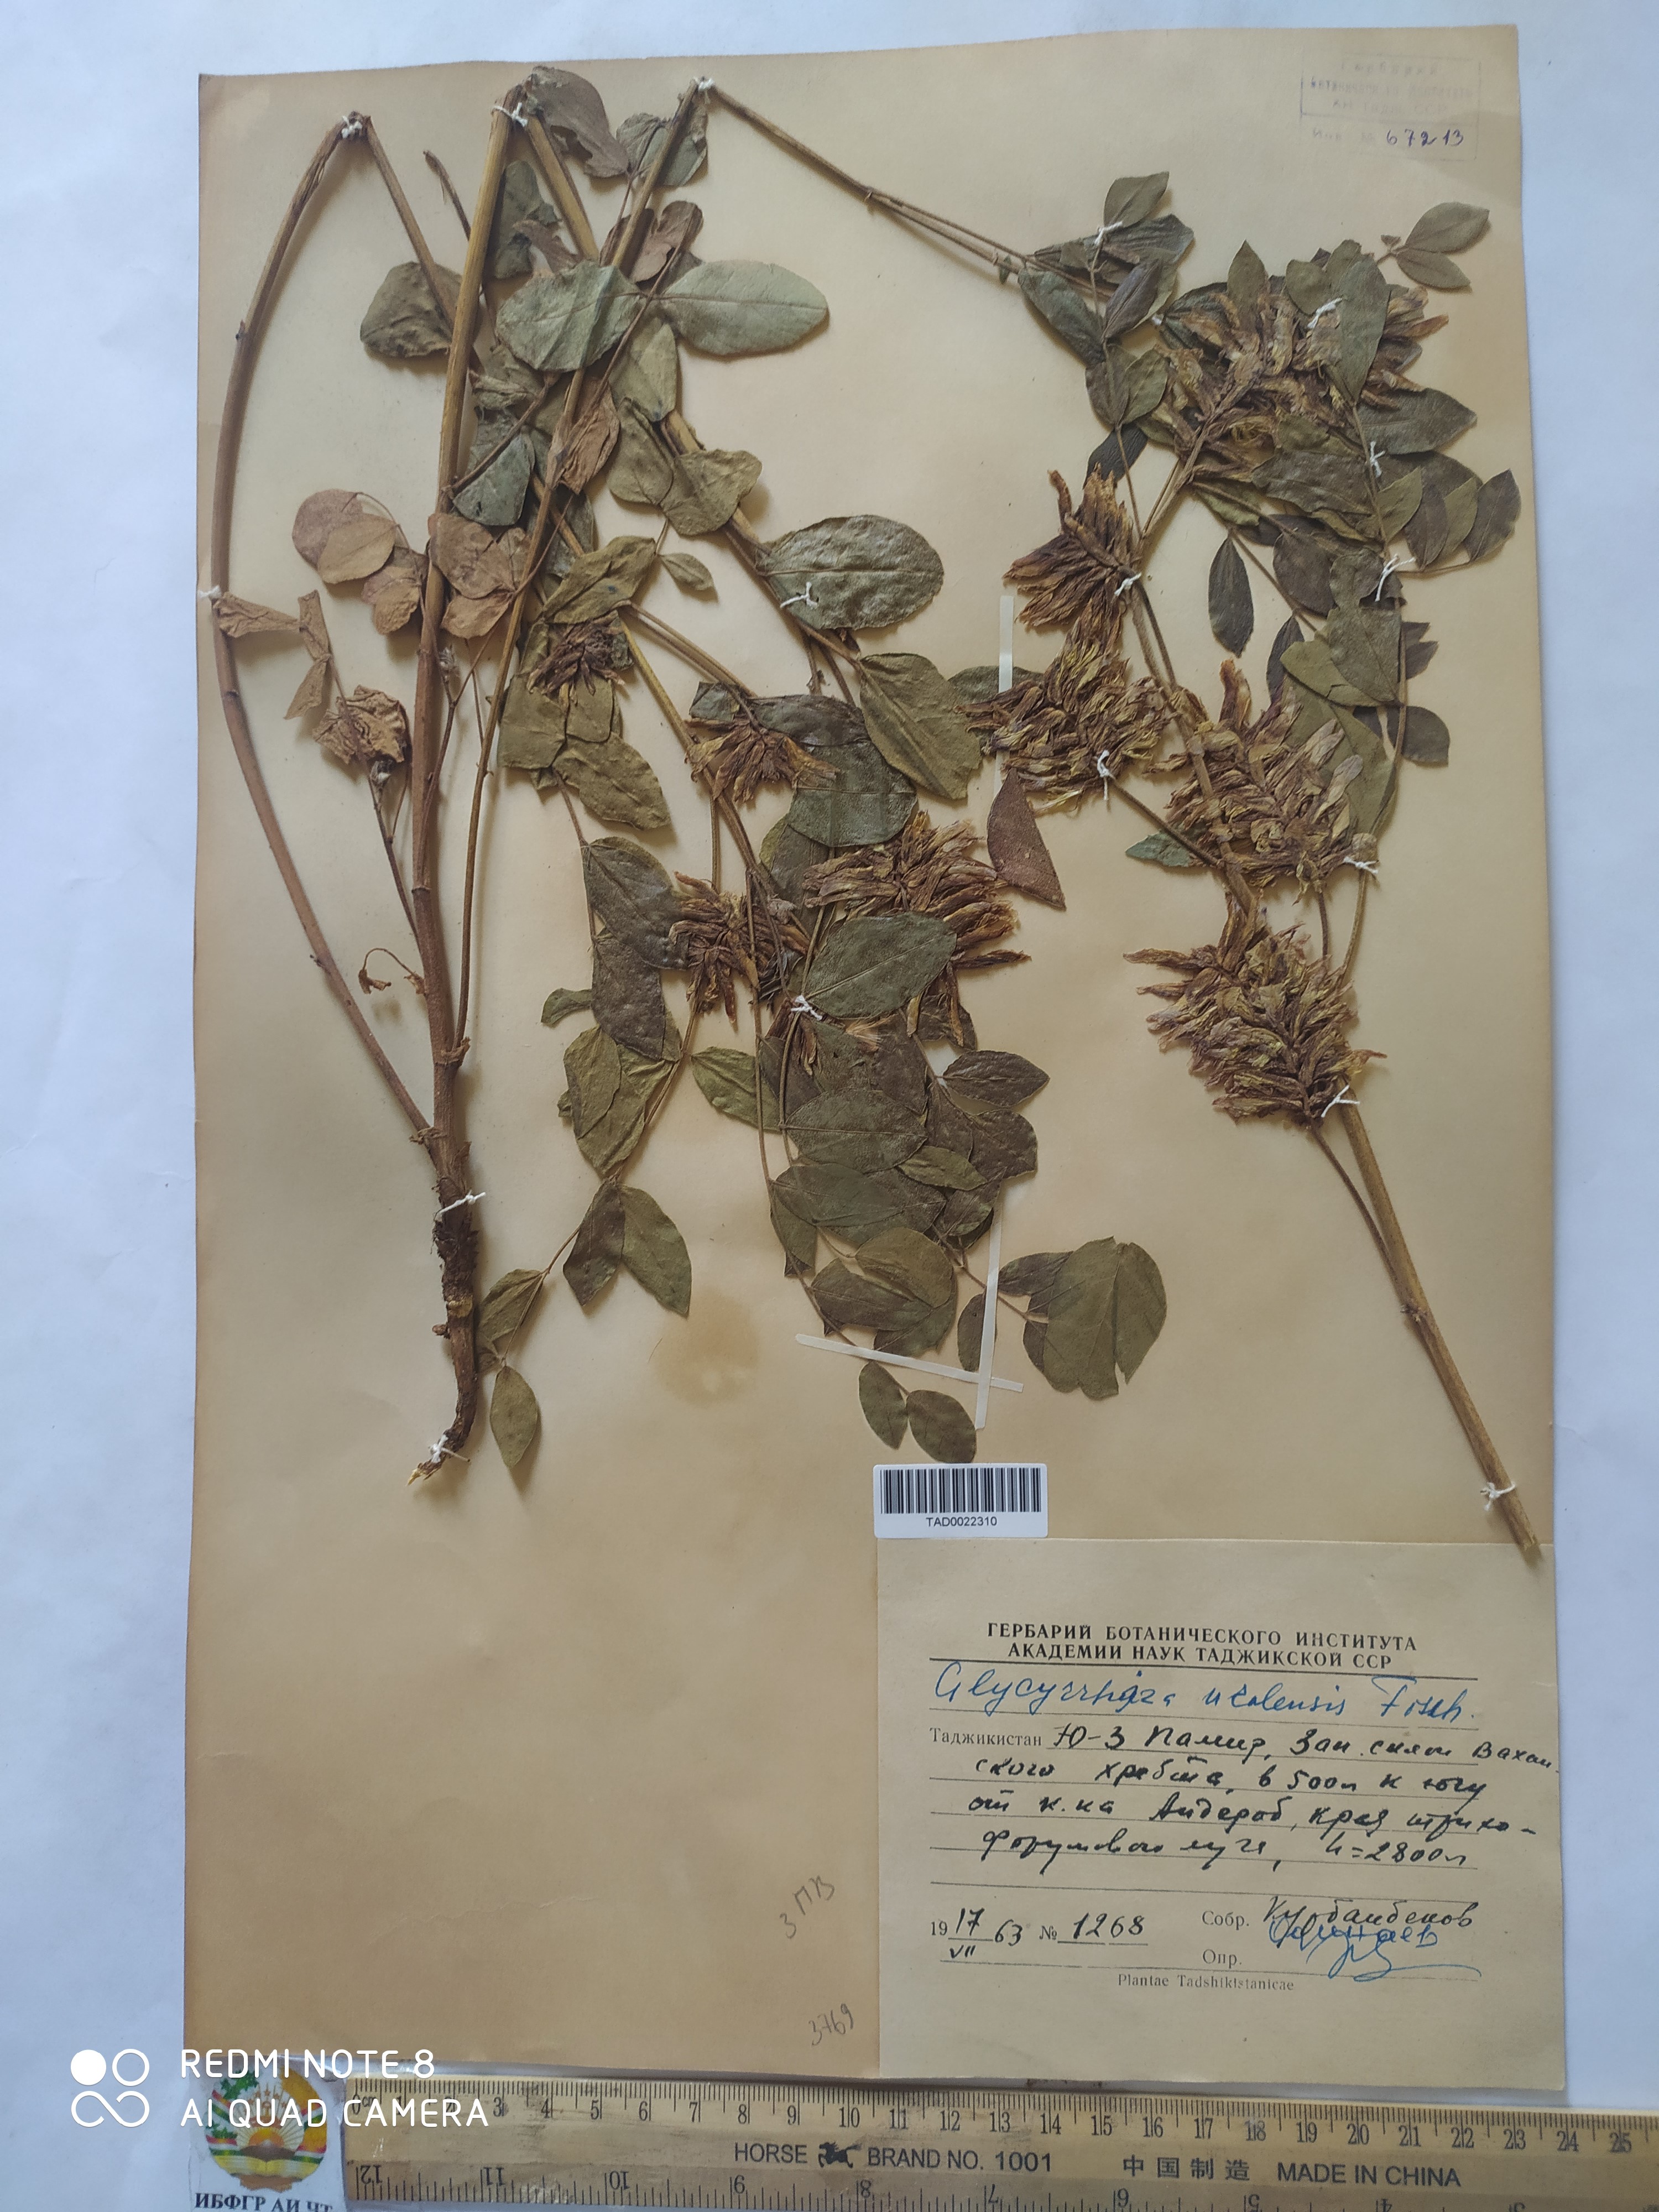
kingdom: Plantae
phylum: Tracheophyta
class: Magnoliopsida
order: Fabales
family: Fabaceae
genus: Glycyrrhiza
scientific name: Glycyrrhiza uralensis
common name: Chinese licorice
